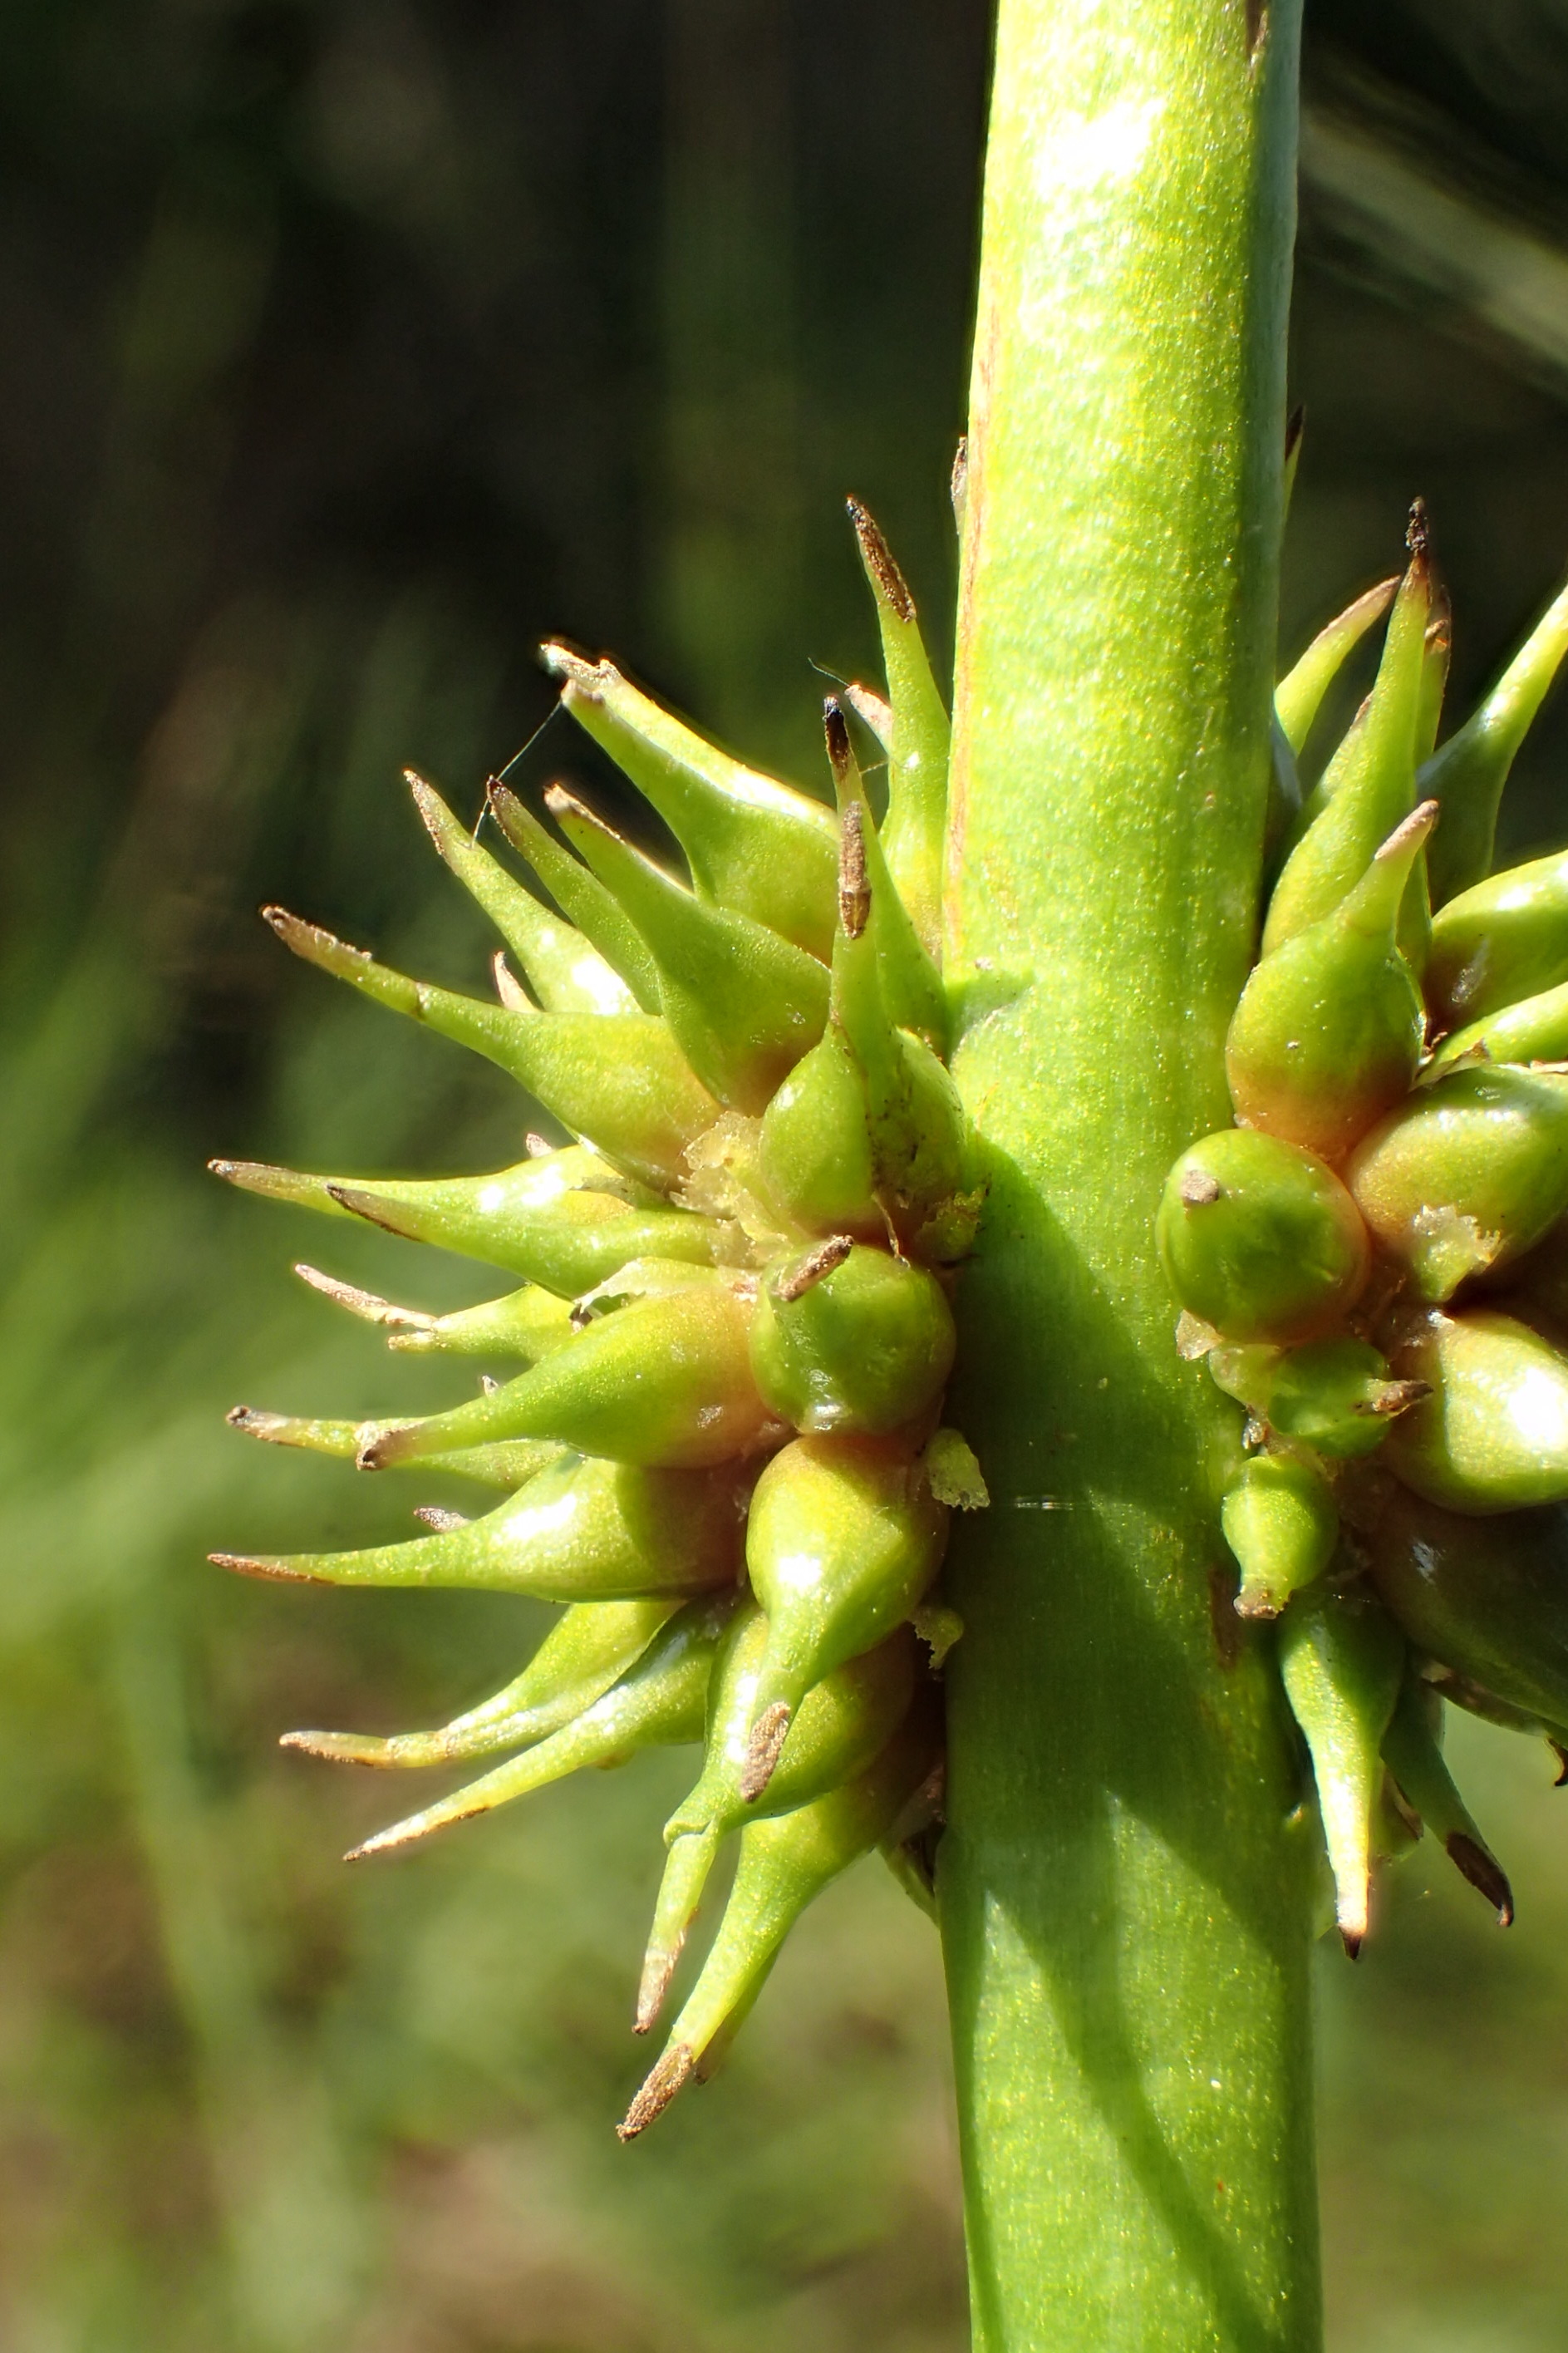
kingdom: Plantae
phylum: Tracheophyta
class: Liliopsida
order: Poales
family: Typhaceae
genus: Sparganium
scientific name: Sparganium emersum
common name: Enkelt pindsvineknop
